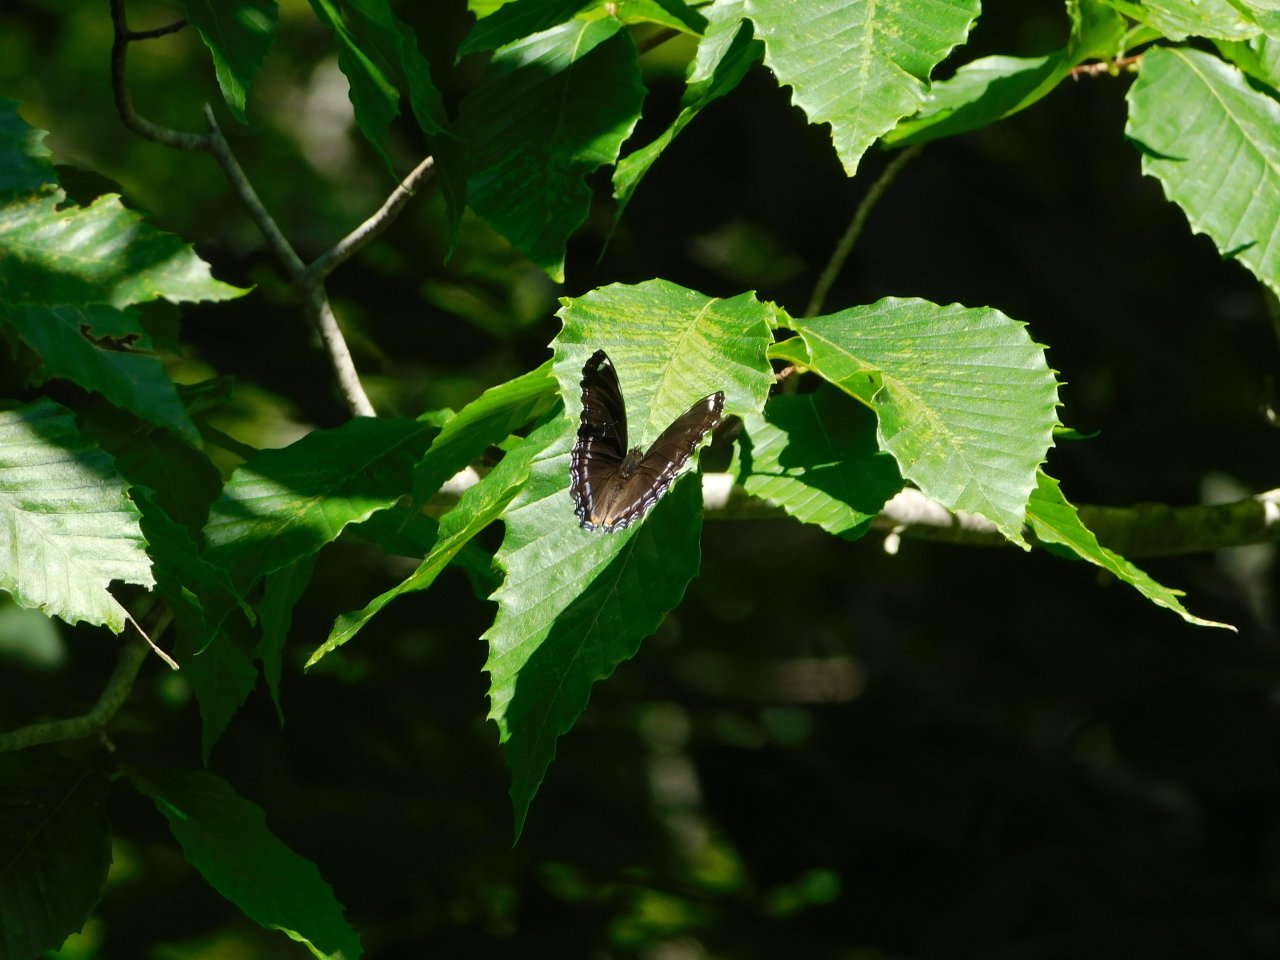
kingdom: Animalia
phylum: Arthropoda
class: Insecta
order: Lepidoptera
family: Nymphalidae
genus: Limenitis
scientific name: Limenitis arthemis
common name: Red-spotted Admiral
